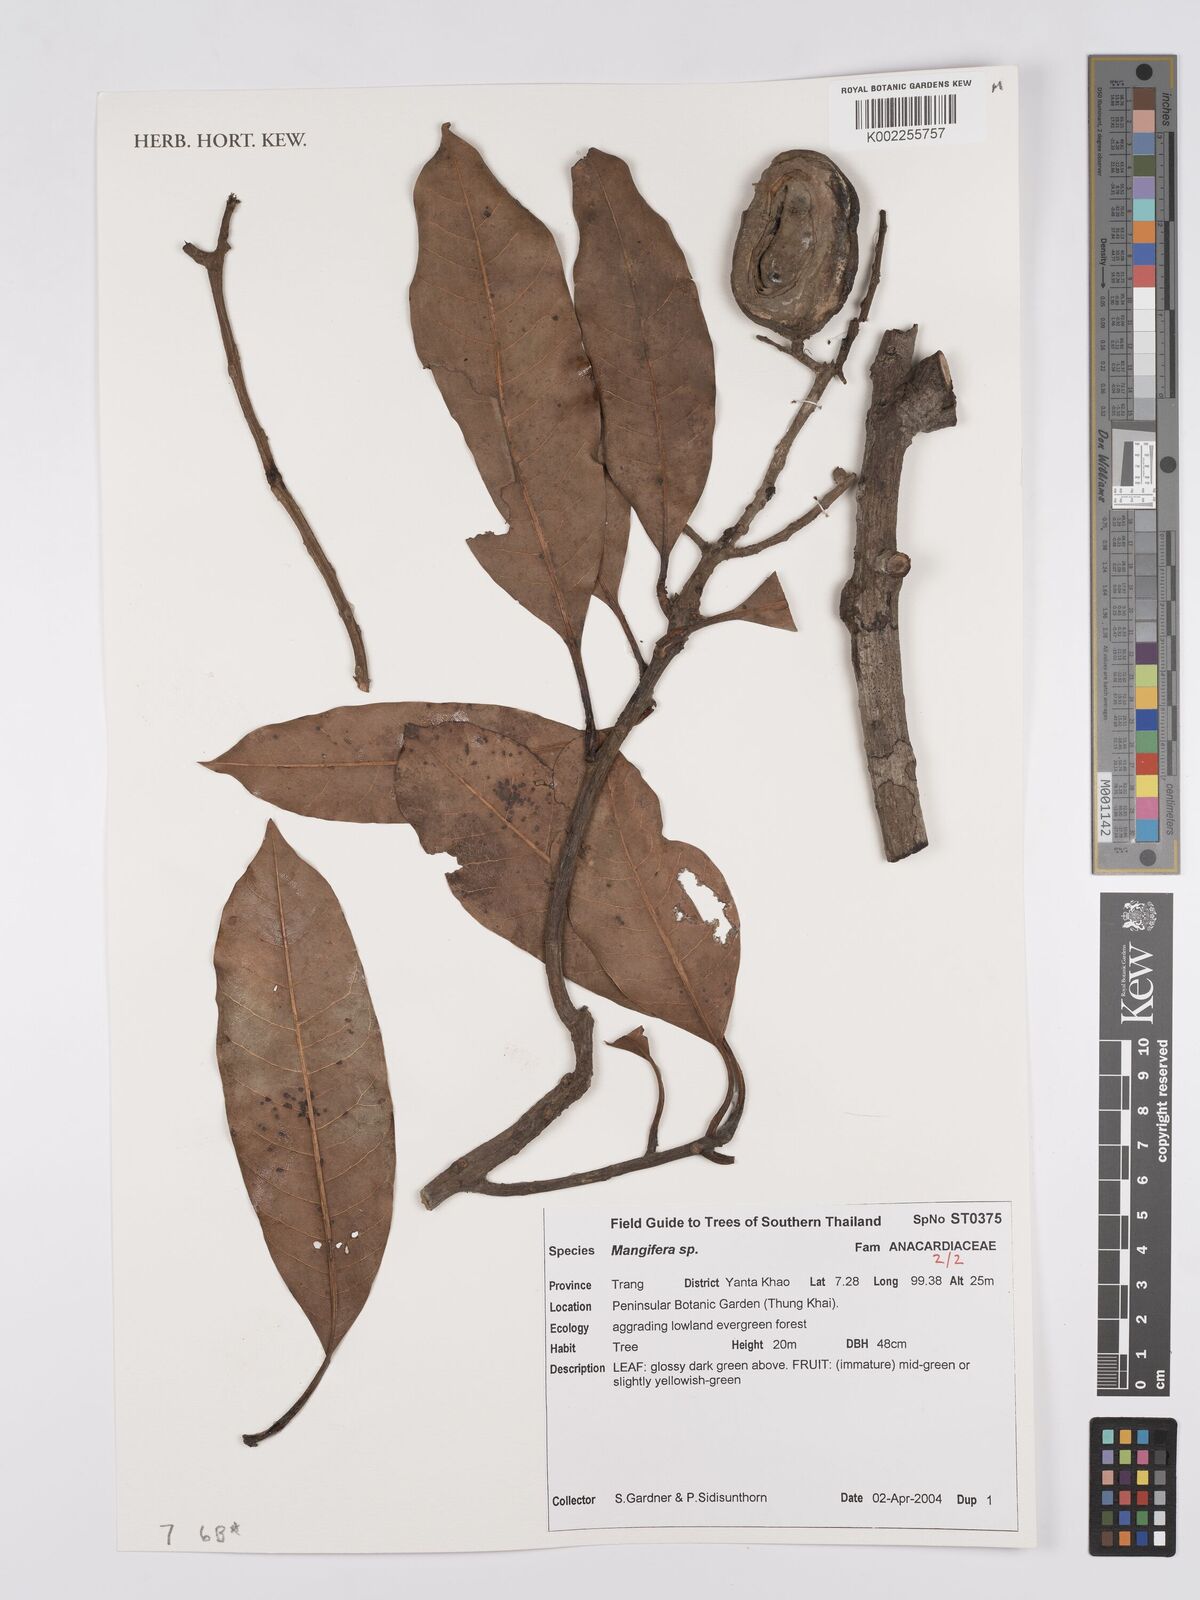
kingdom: Plantae
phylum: Tracheophyta
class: Magnoliopsida
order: Sapindales
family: Anacardiaceae
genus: Mangifera
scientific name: Mangifera
